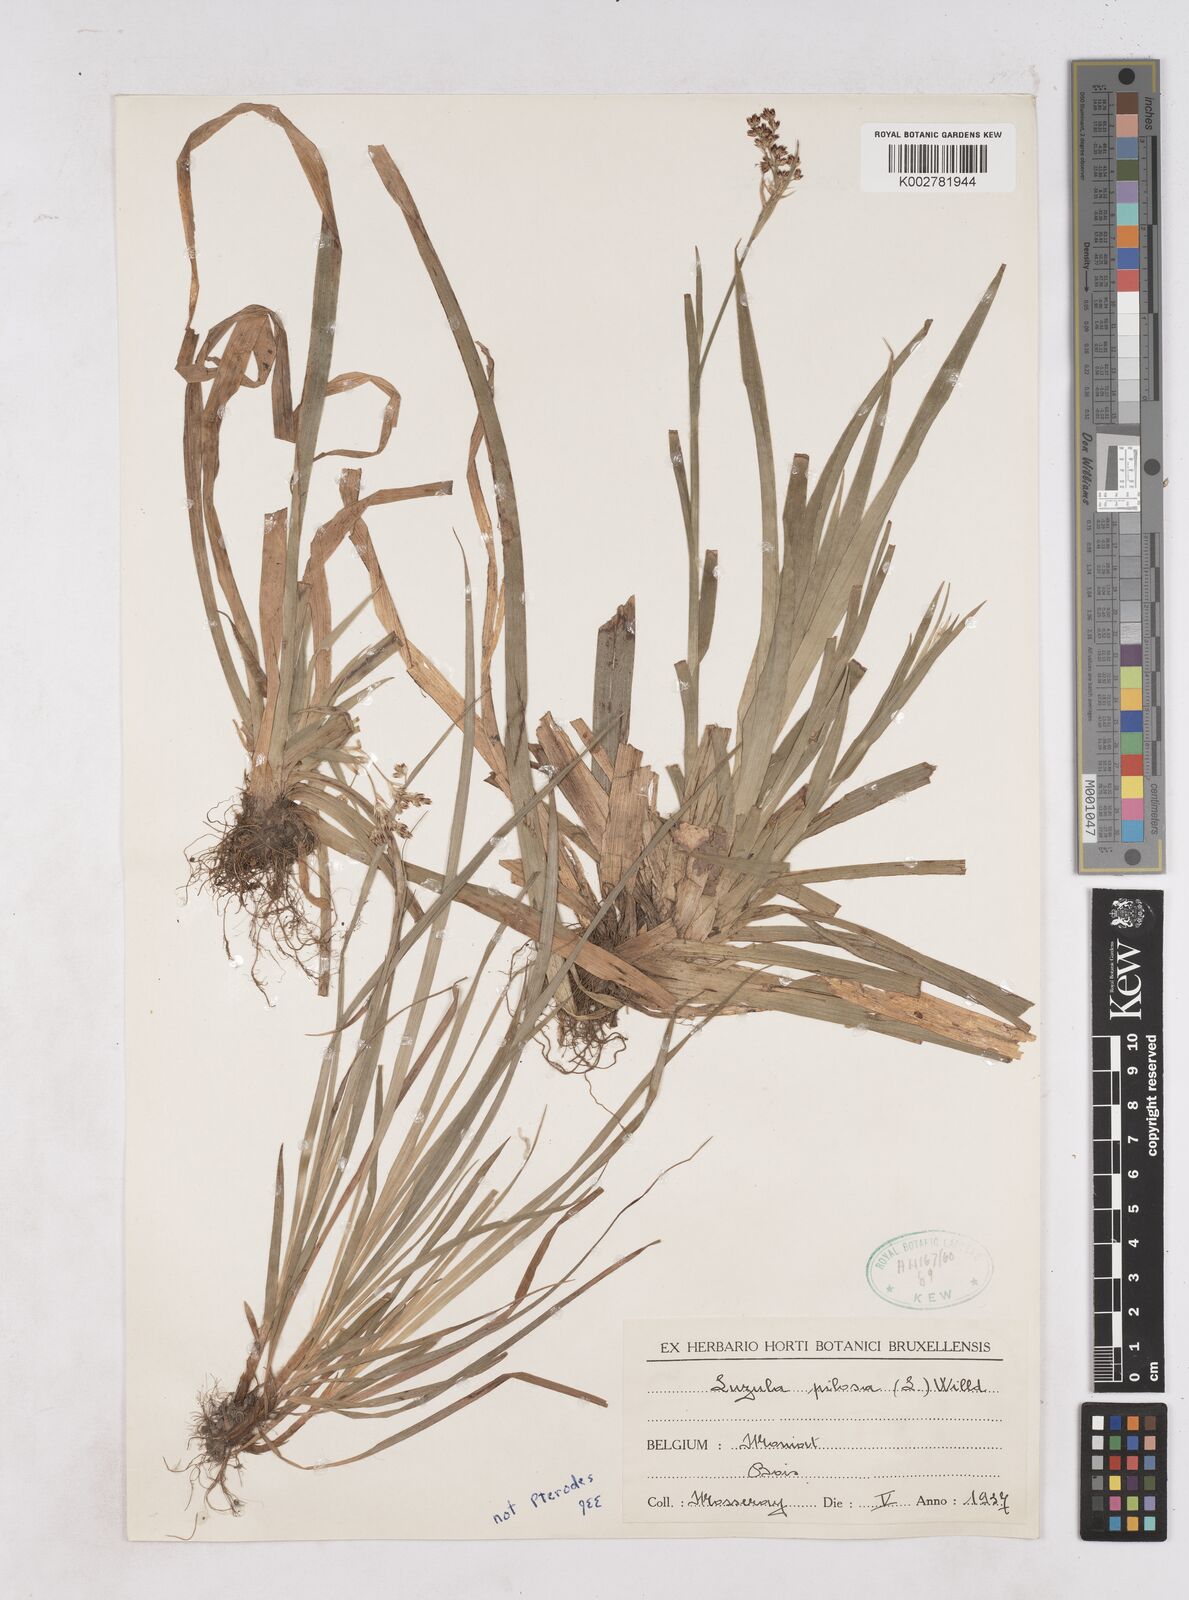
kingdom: Plantae
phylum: Tracheophyta
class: Liliopsida
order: Poales
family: Juncaceae
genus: Luzula
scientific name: Luzula sylvatica
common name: Great wood-rush
